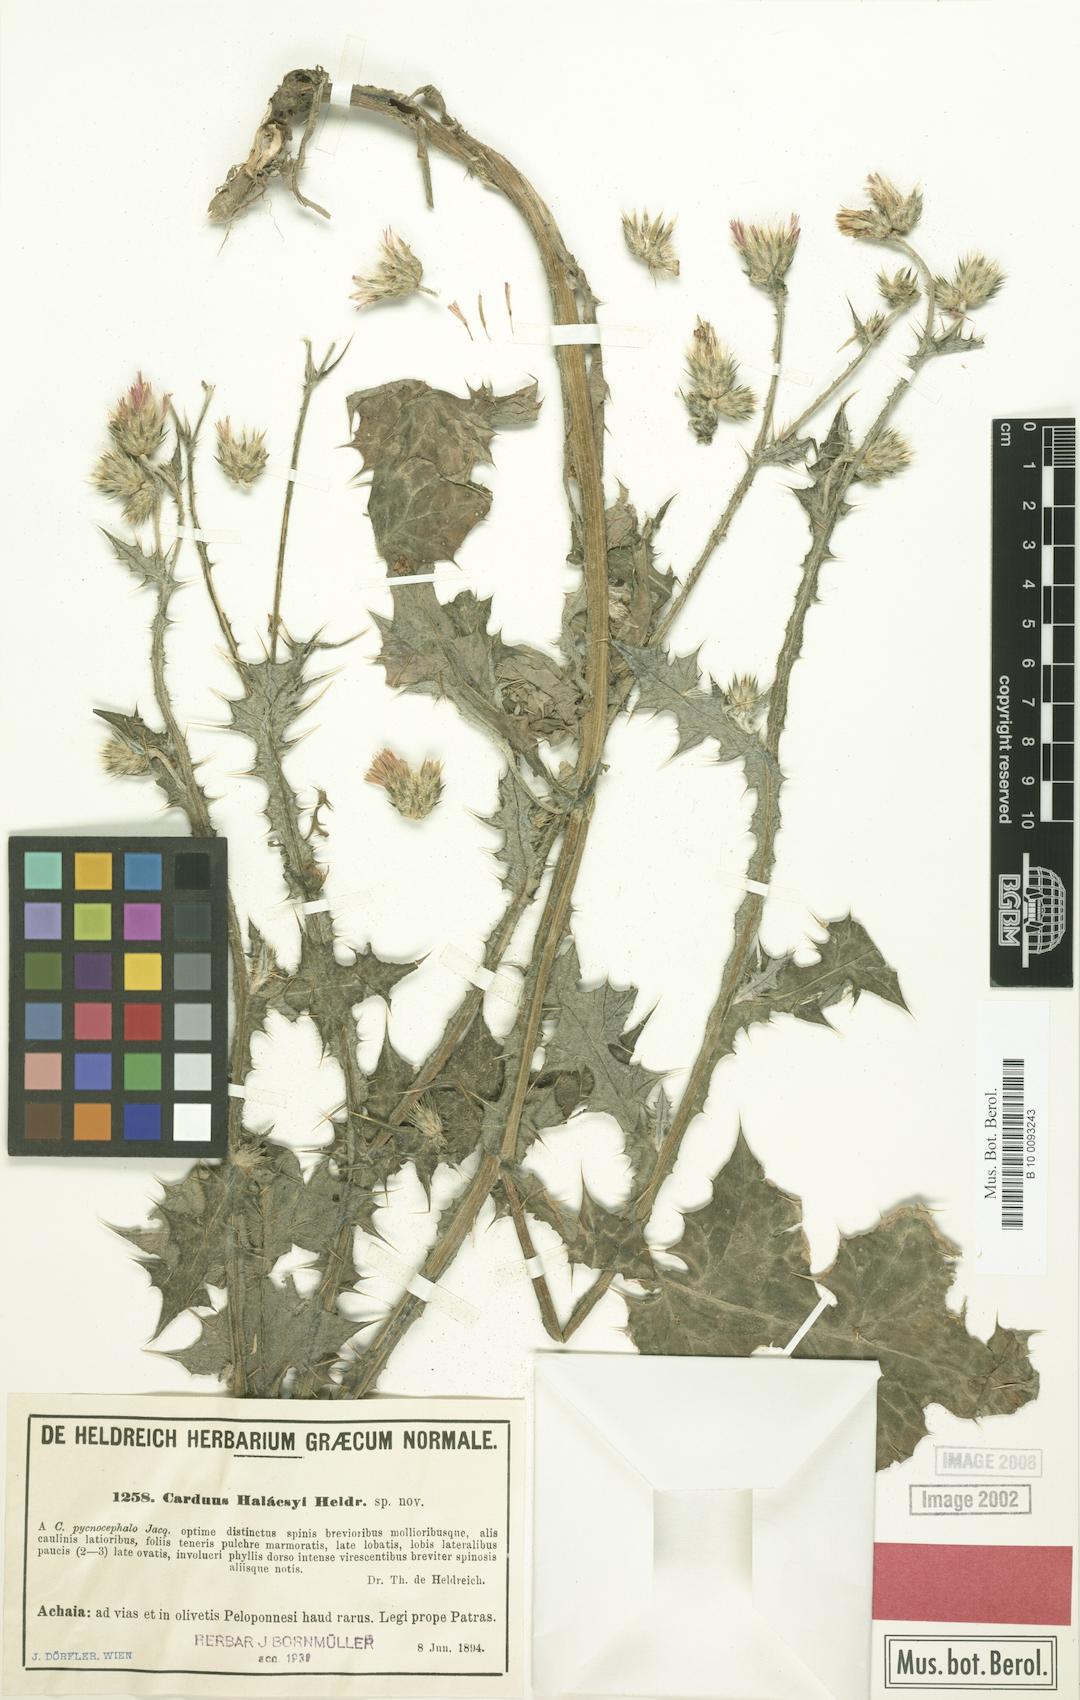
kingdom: Plantae
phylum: Tracheophyta
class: Magnoliopsida
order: Asterales
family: Asteraceae
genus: Carduus
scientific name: Carduus arabicus
